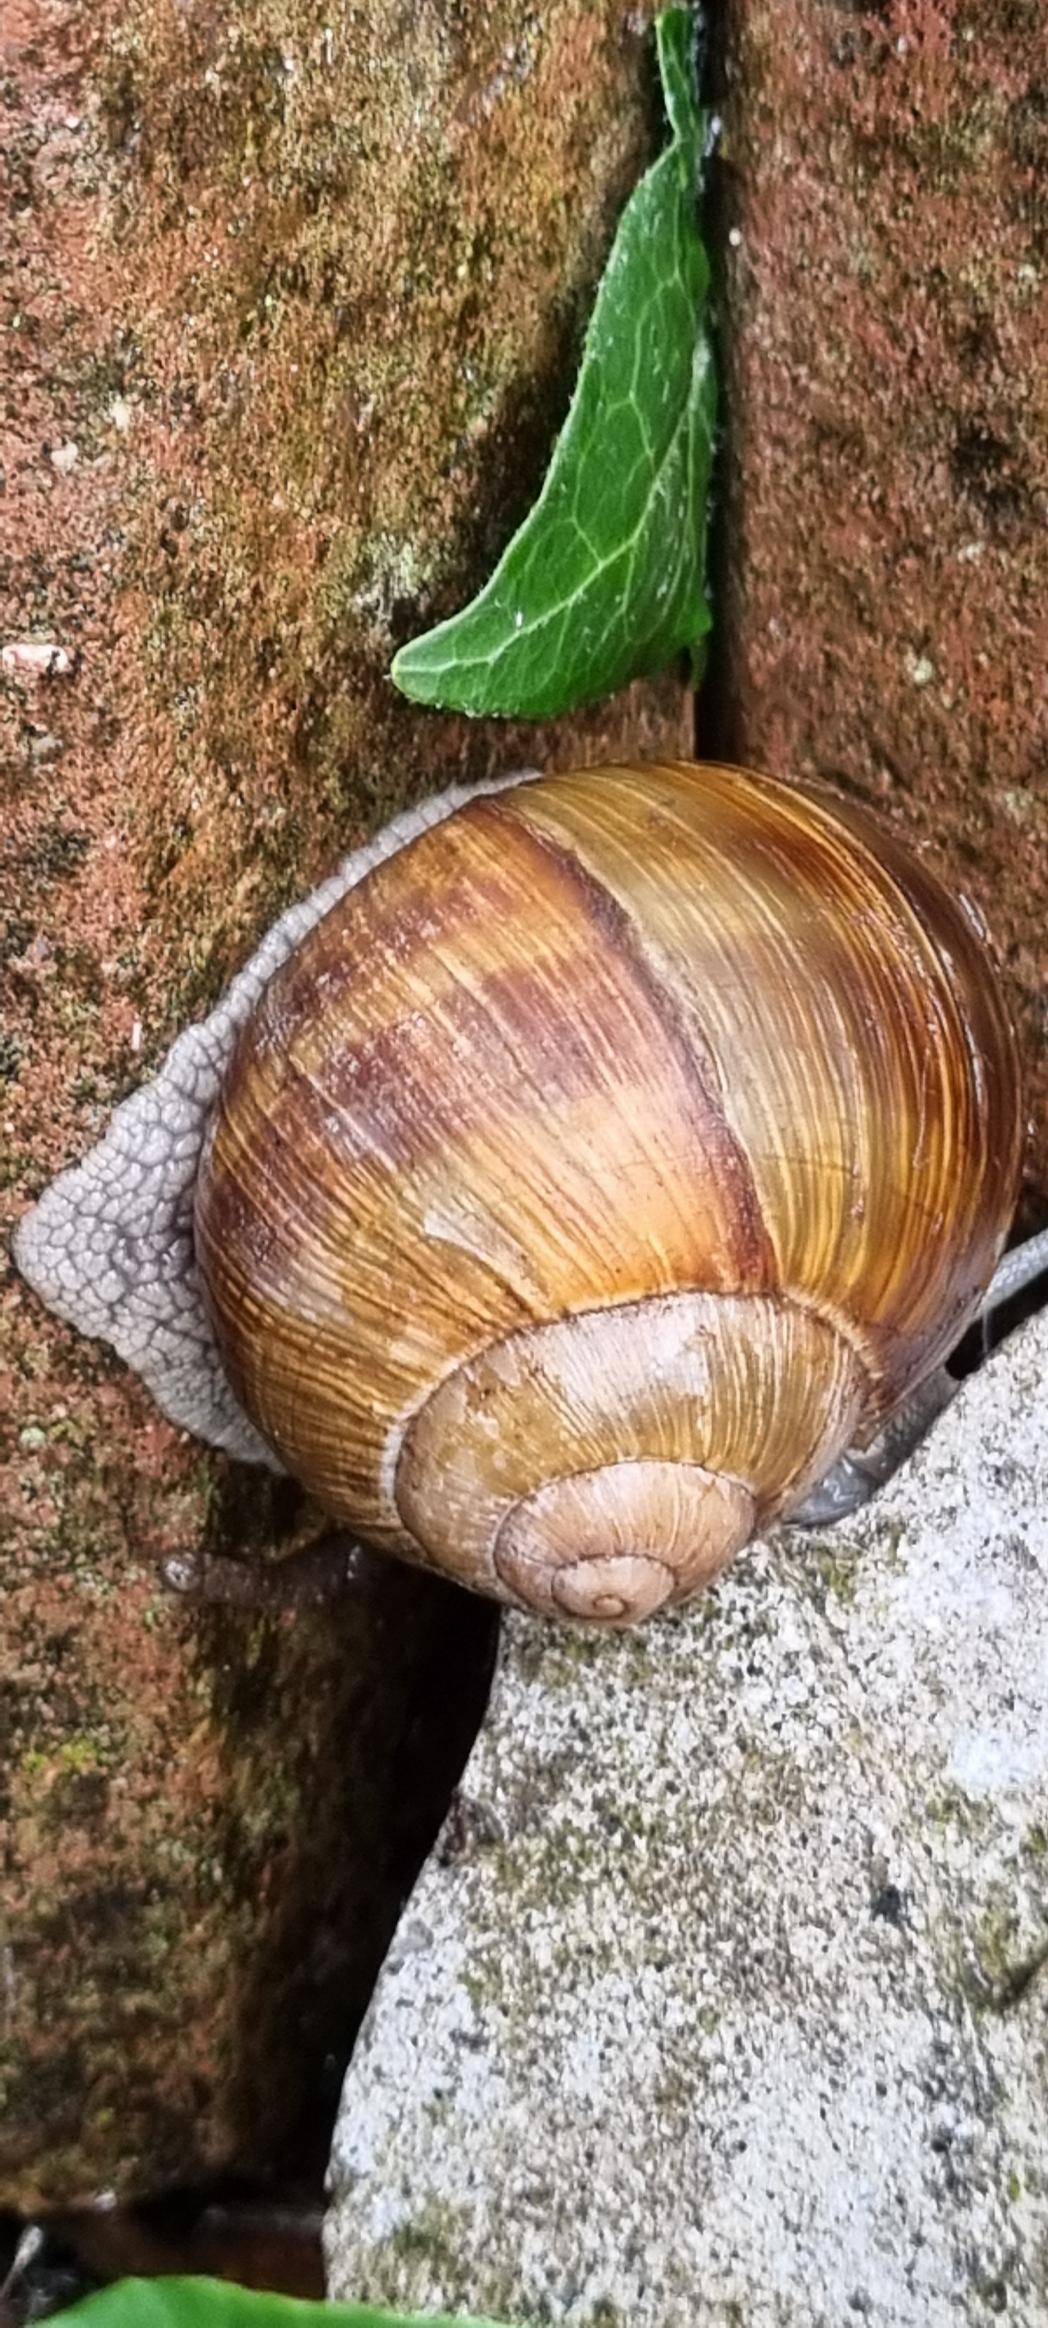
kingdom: Animalia
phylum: Mollusca
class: Gastropoda
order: Stylommatophora
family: Helicidae
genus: Helix
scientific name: Helix pomatia
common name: Vinbjergsnegl
